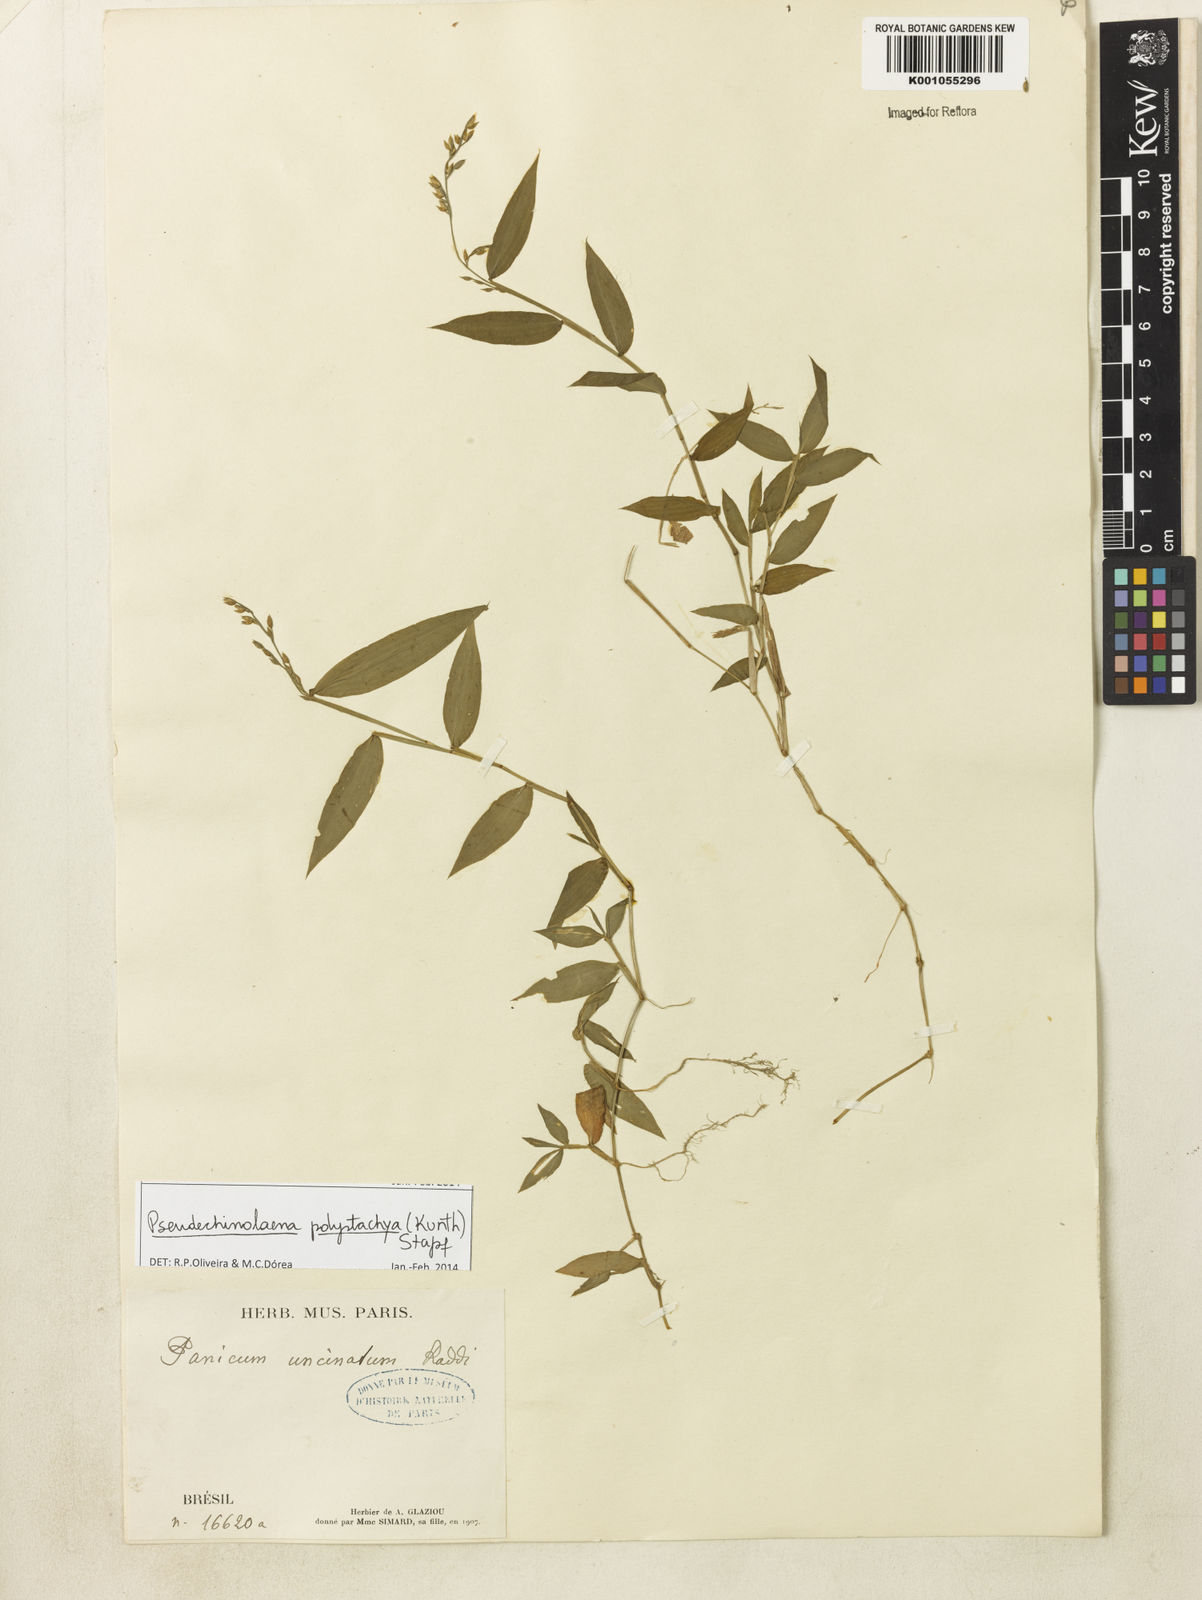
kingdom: Plantae
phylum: Tracheophyta
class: Liliopsida
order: Poales
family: Poaceae
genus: Pseudechinolaena
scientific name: Pseudechinolaena polystachya
